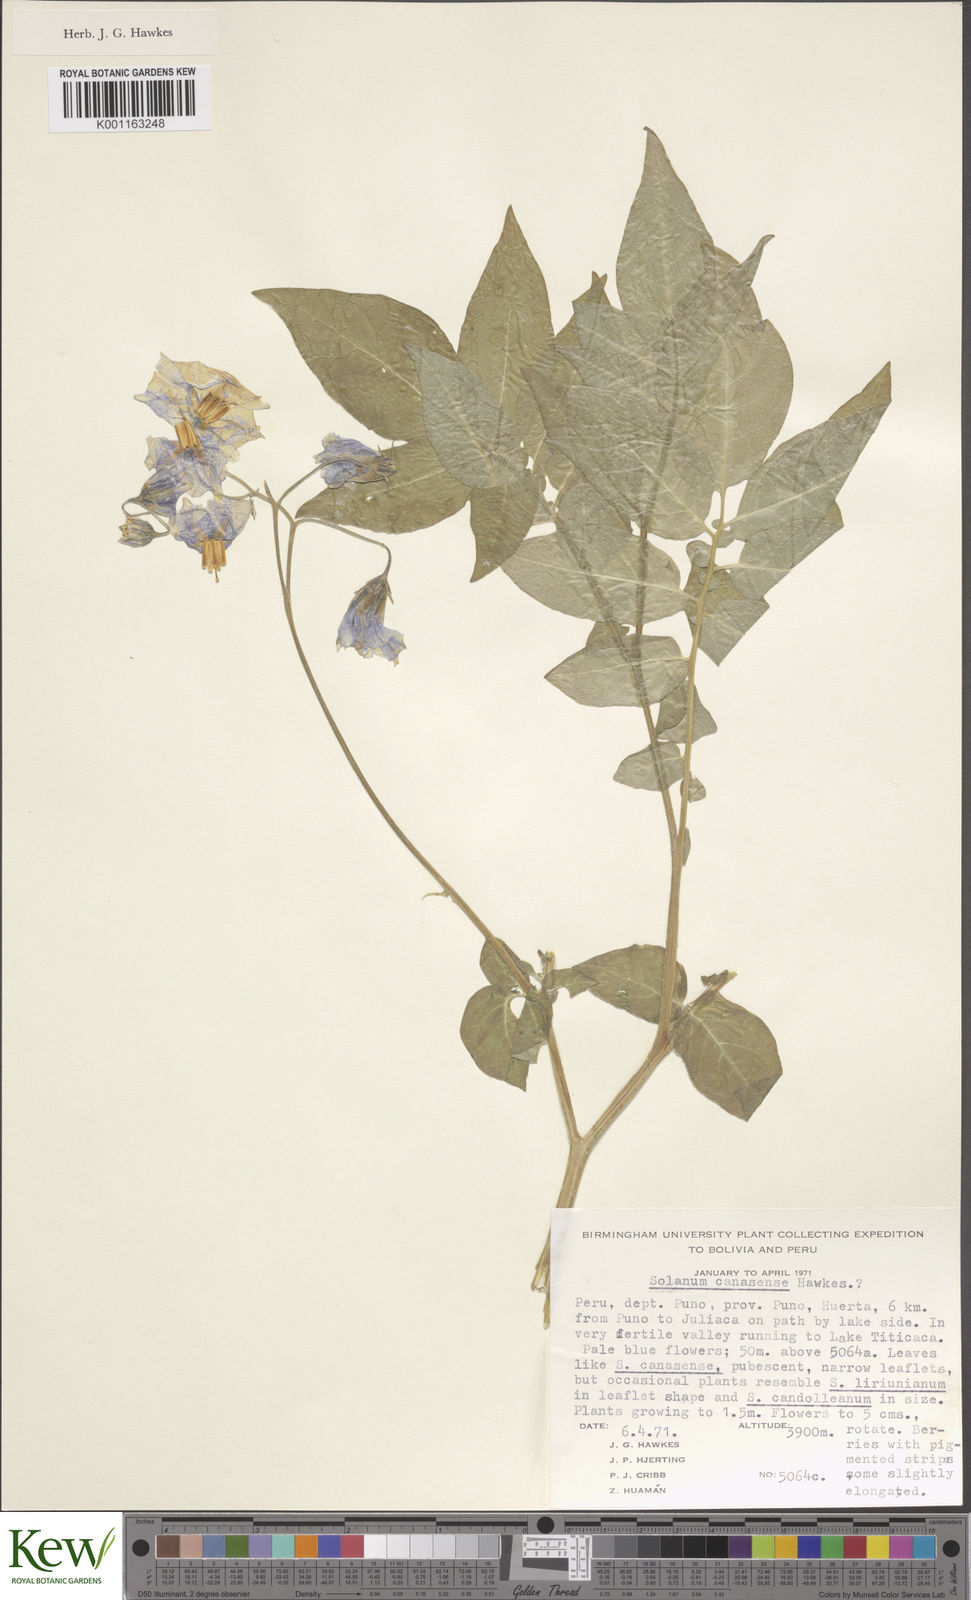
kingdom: Plantae
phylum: Tracheophyta
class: Magnoliopsida
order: Solanales
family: Solanaceae
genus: Solanum
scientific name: Solanum candolleanum
